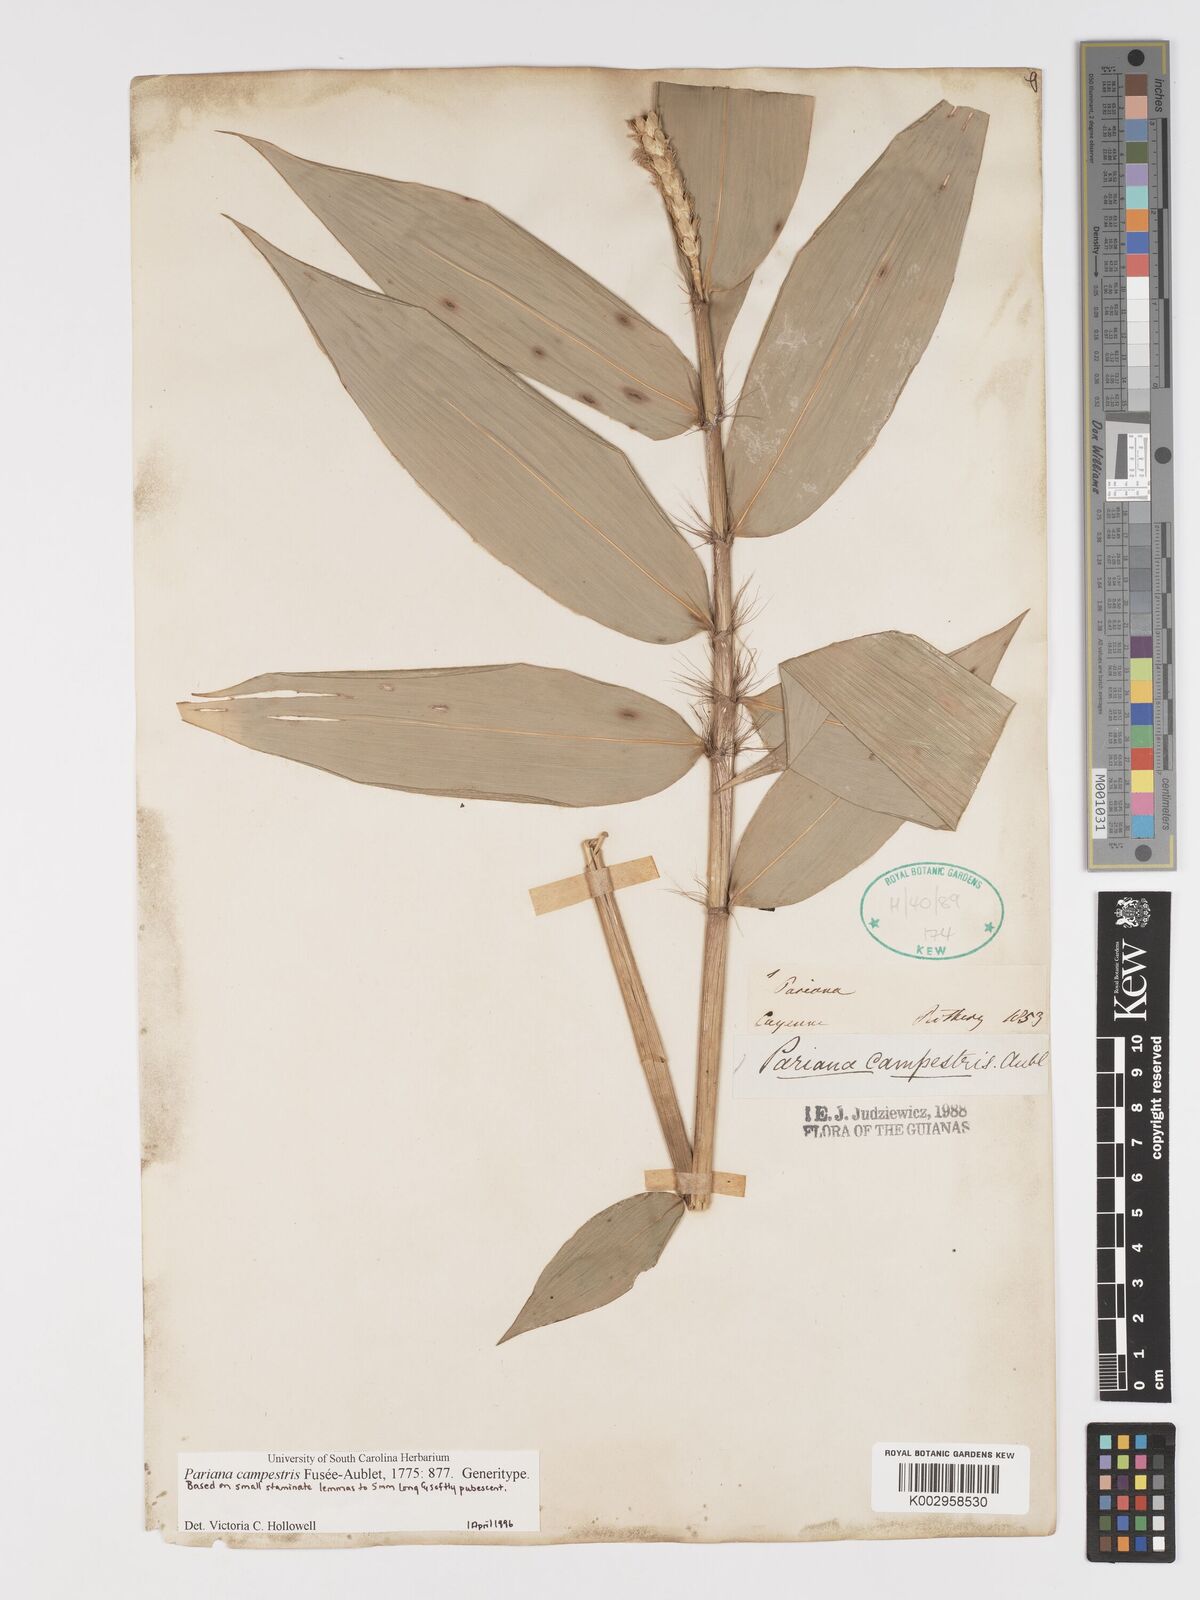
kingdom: Plantae
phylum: Tracheophyta
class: Liliopsida
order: Poales
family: Poaceae
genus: Pariana
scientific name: Pariana campestris
